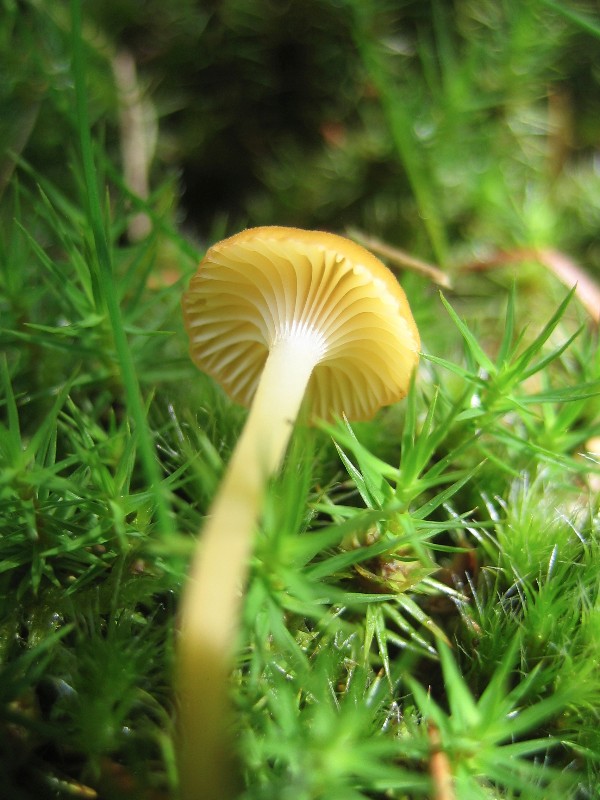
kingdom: Fungi
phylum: Basidiomycota
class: Agaricomycetes
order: Hymenochaetales
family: Rickenellaceae
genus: Rickenella
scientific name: Rickenella fibula
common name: orange mosnavlehat
